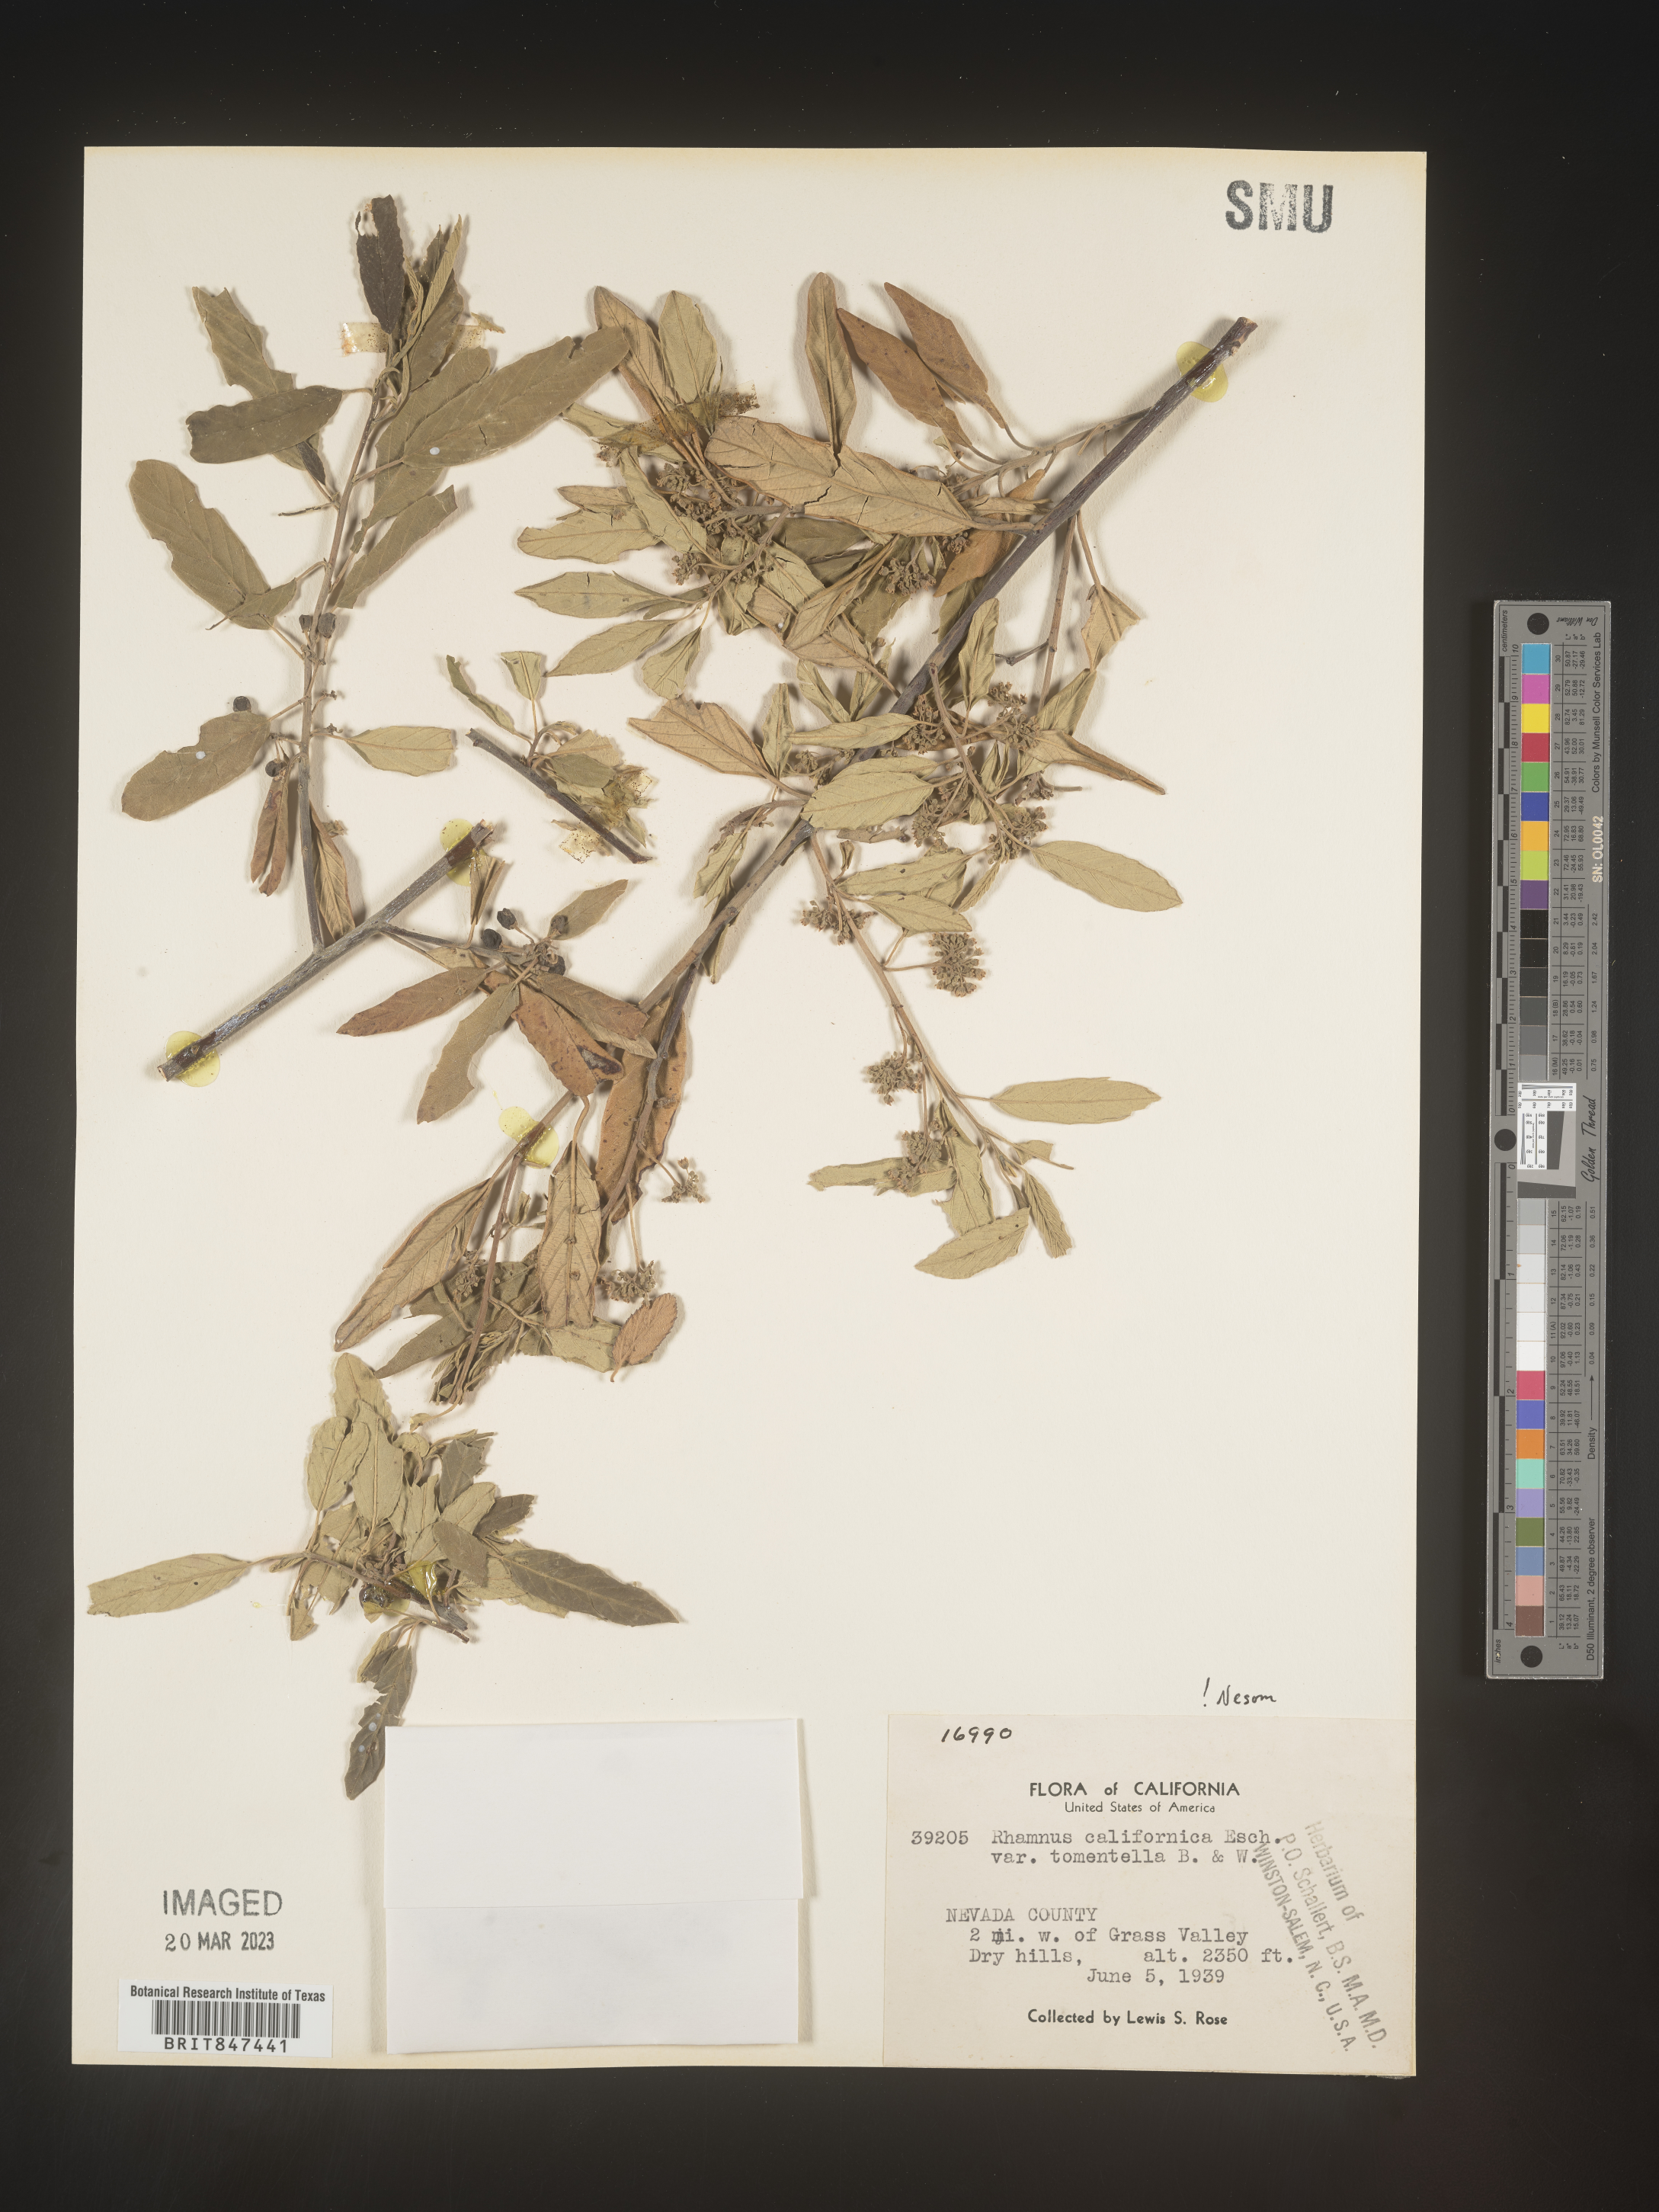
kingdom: Plantae
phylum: Tracheophyta
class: Magnoliopsida
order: Rosales
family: Rhamnaceae
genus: Frangula
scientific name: Frangula californica
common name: California buckthorn
